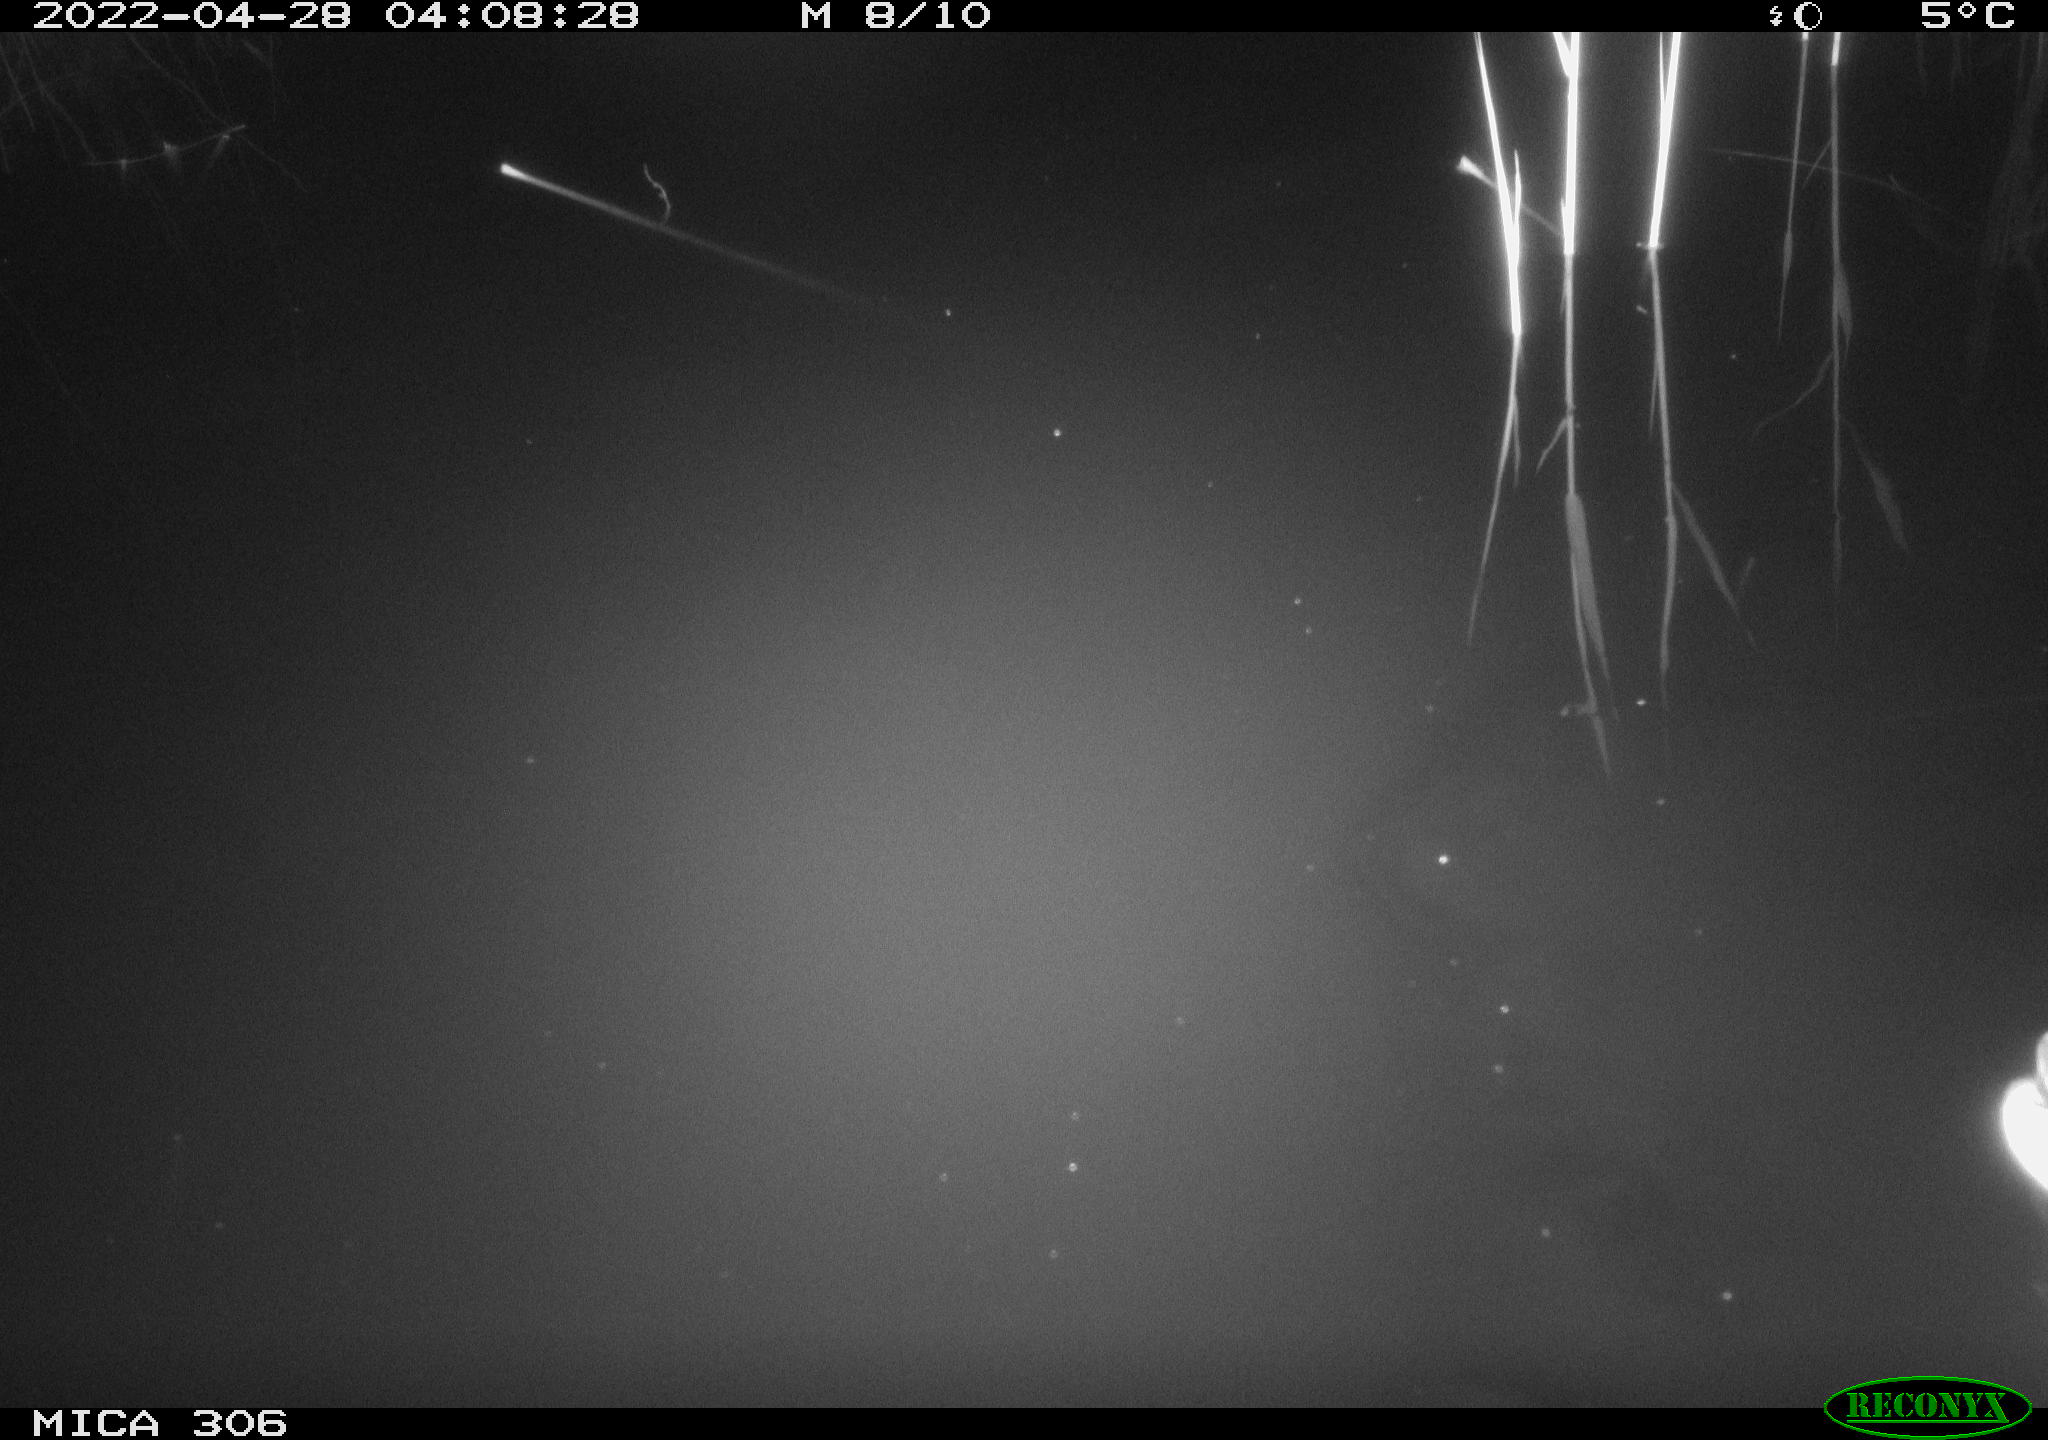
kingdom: Animalia
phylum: Chordata
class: Aves
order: Anseriformes
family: Anatidae
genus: Anas
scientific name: Anas platyrhynchos
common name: Mallard
